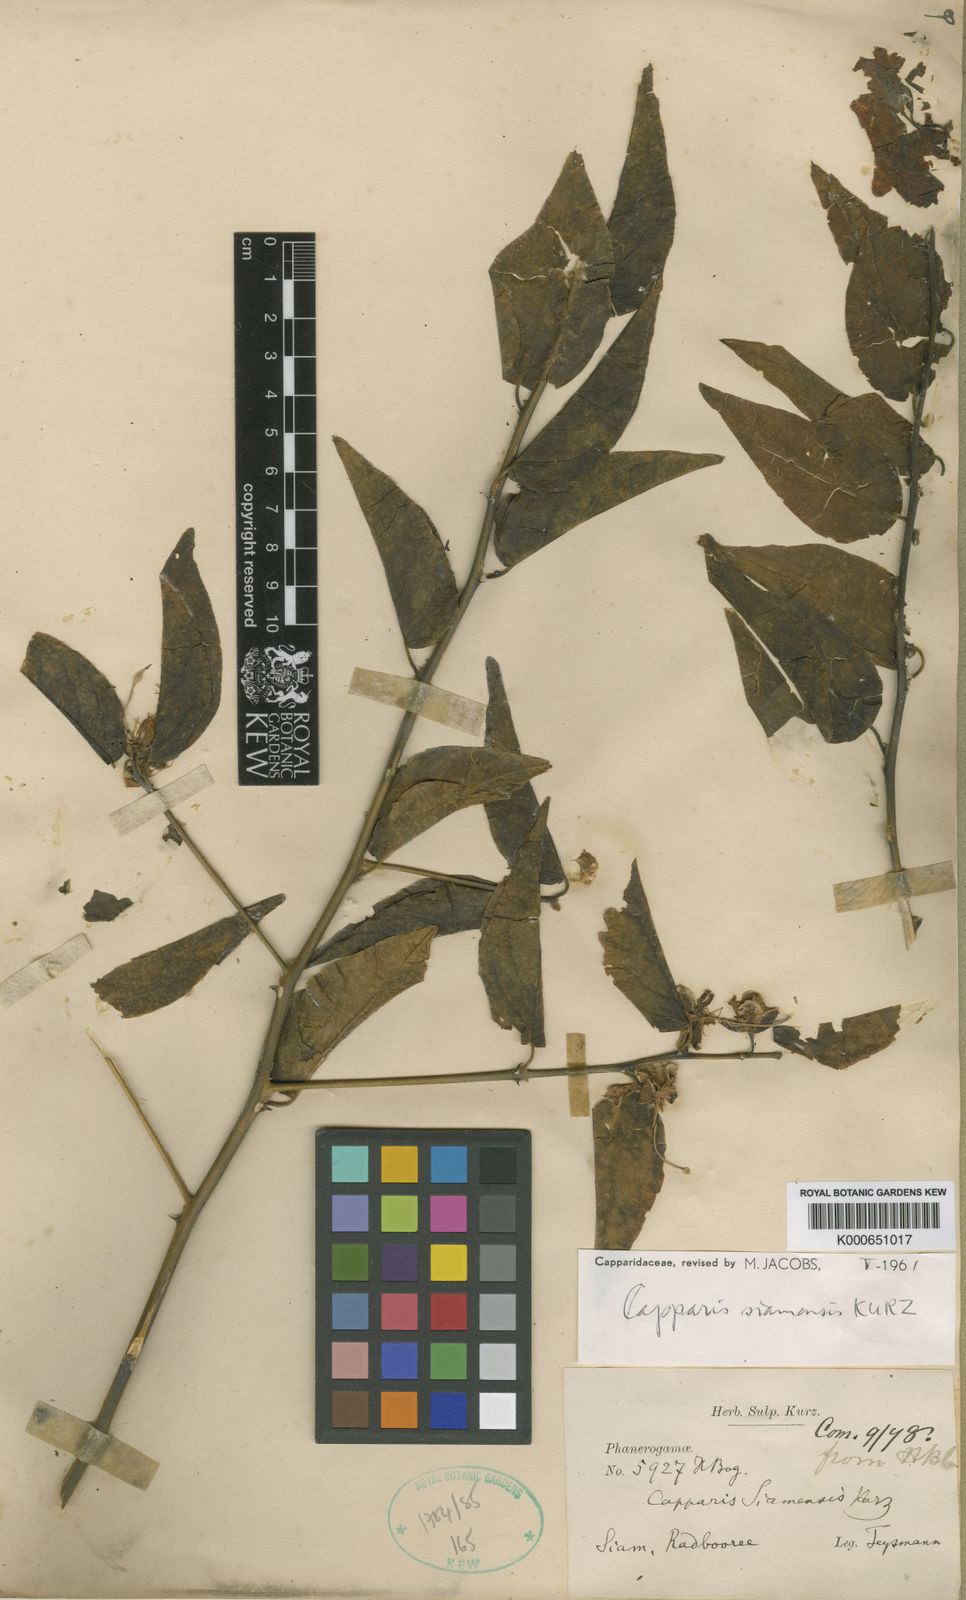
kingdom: Plantae
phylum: Tracheophyta
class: Magnoliopsida
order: Brassicales
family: Capparaceae
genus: Capparis
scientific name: Capparis siamensis
